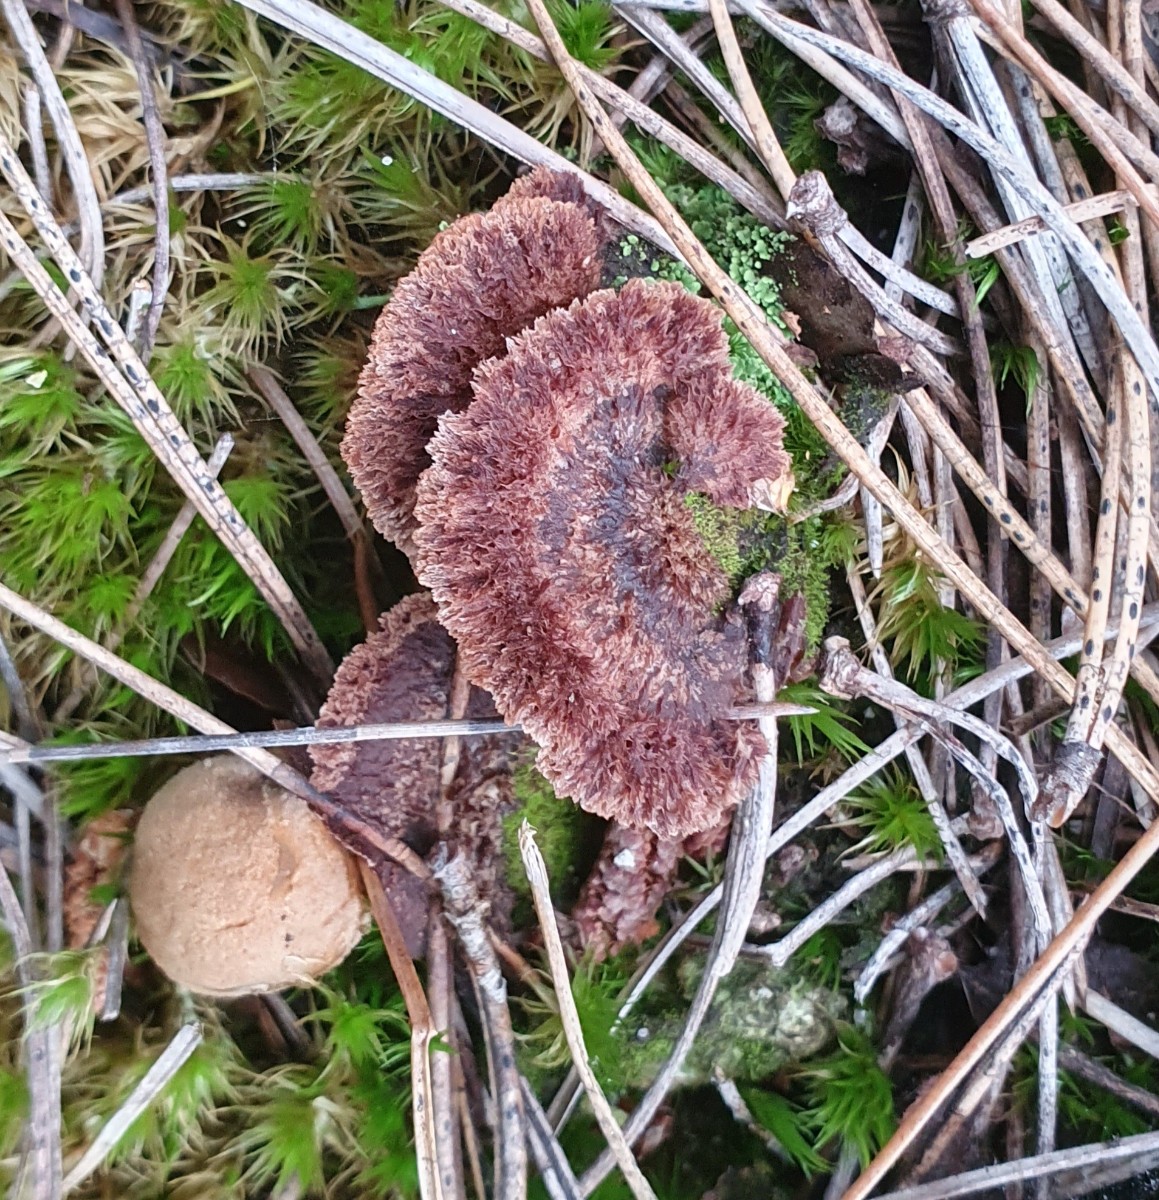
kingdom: Fungi
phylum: Basidiomycota
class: Agaricomycetes
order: Thelephorales
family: Thelephoraceae
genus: Thelephora
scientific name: Thelephora terrestris
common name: fliget frynsesvamp
